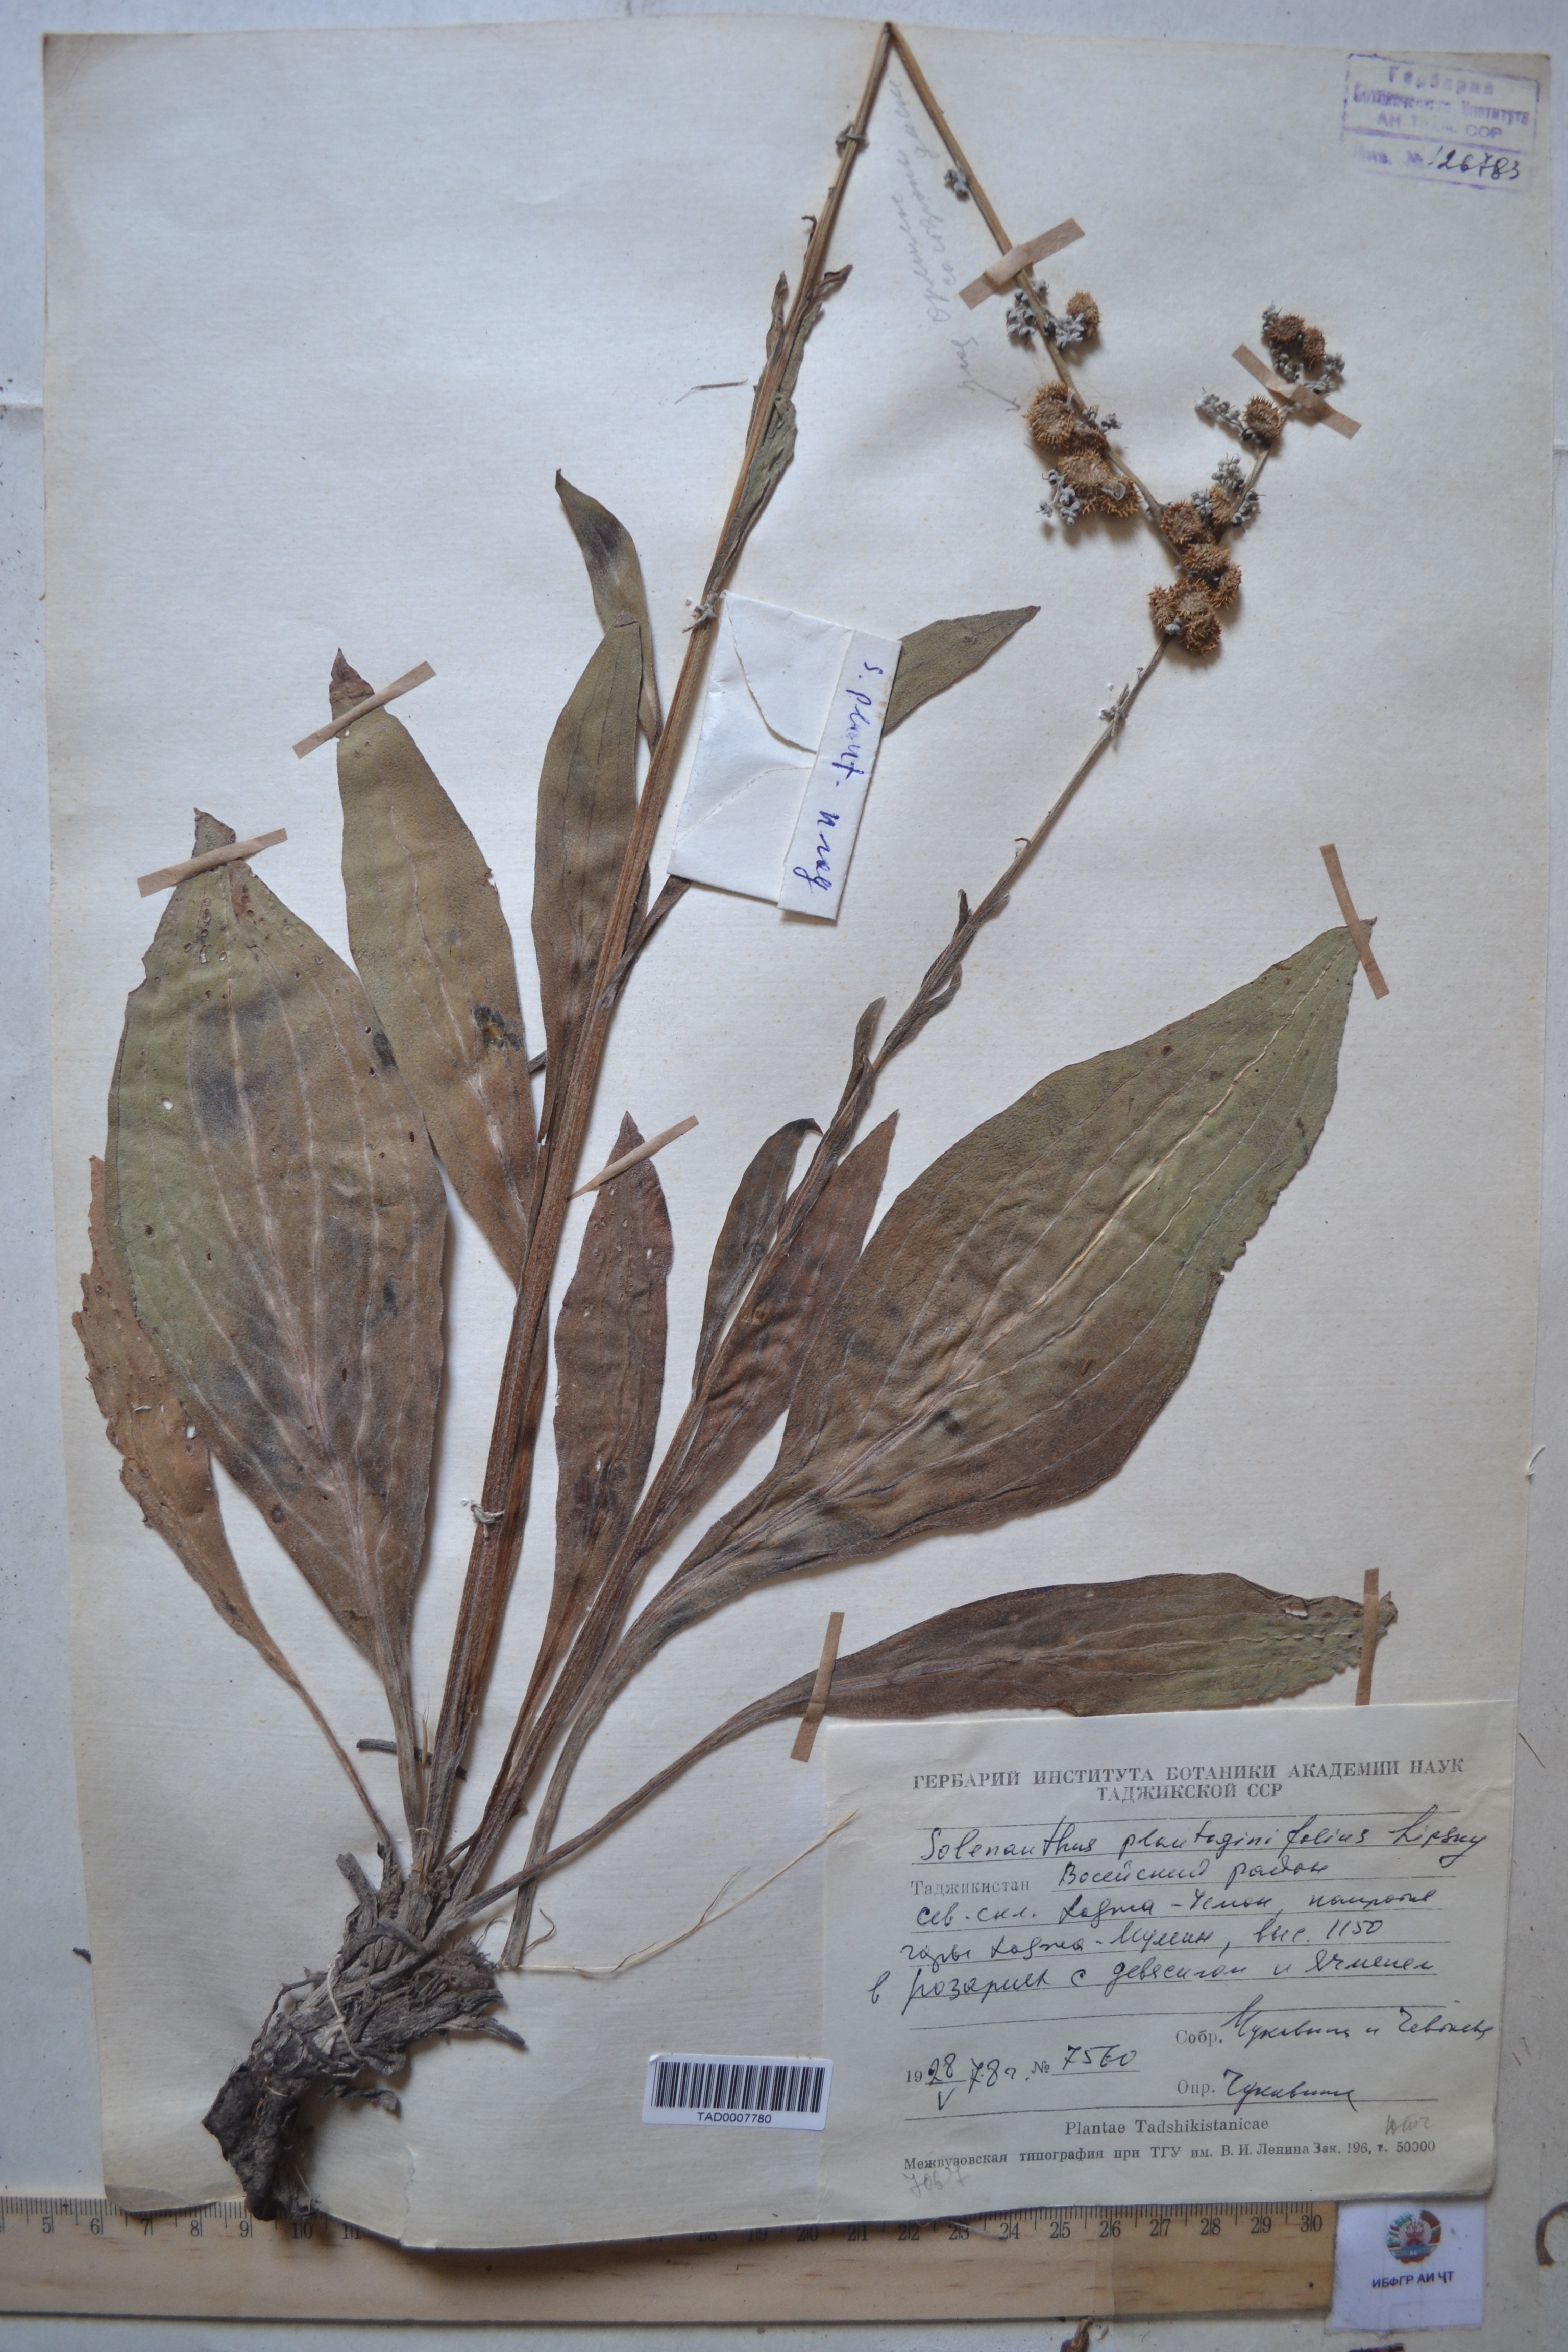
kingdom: Plantae
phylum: Tracheophyta
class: Magnoliopsida
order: Boraginales
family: Boraginaceae
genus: Solenanthus
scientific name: Solenanthus plantaginifolius
